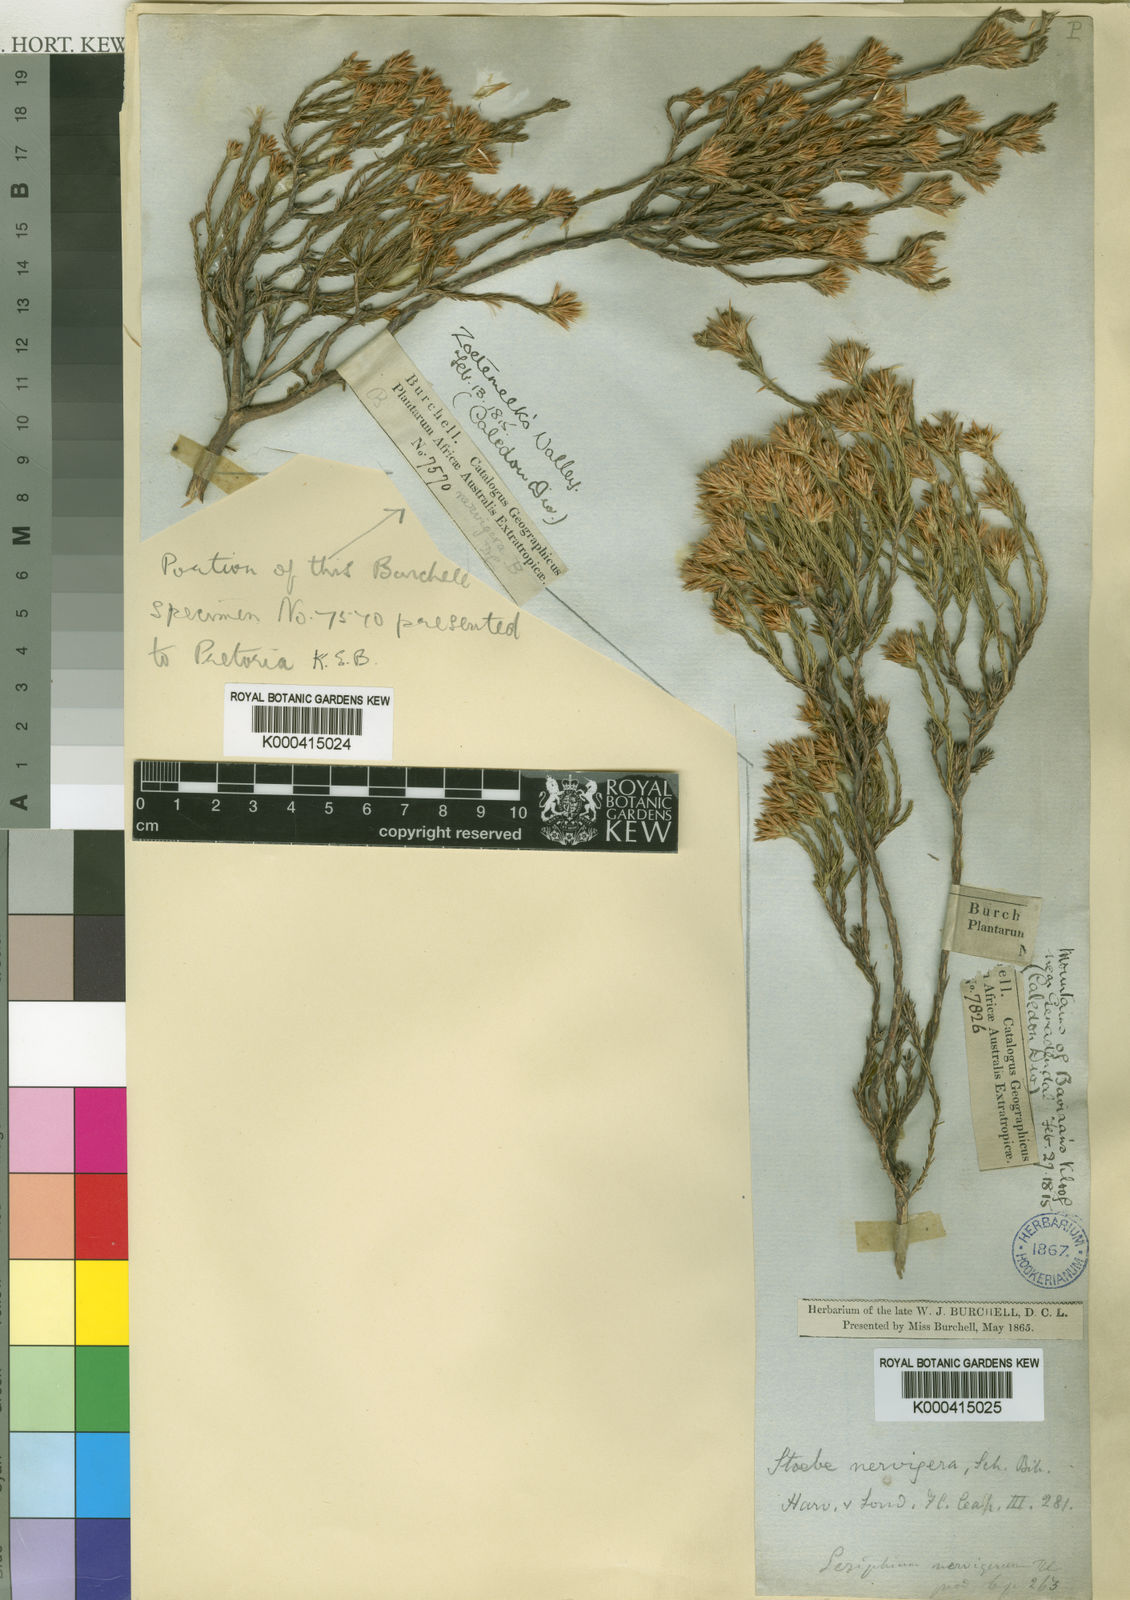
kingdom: Plantae
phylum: Tracheophyta
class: Magnoliopsida
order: Asterales
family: Asteraceae
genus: Stoebe
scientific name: Stoebe nervigera
